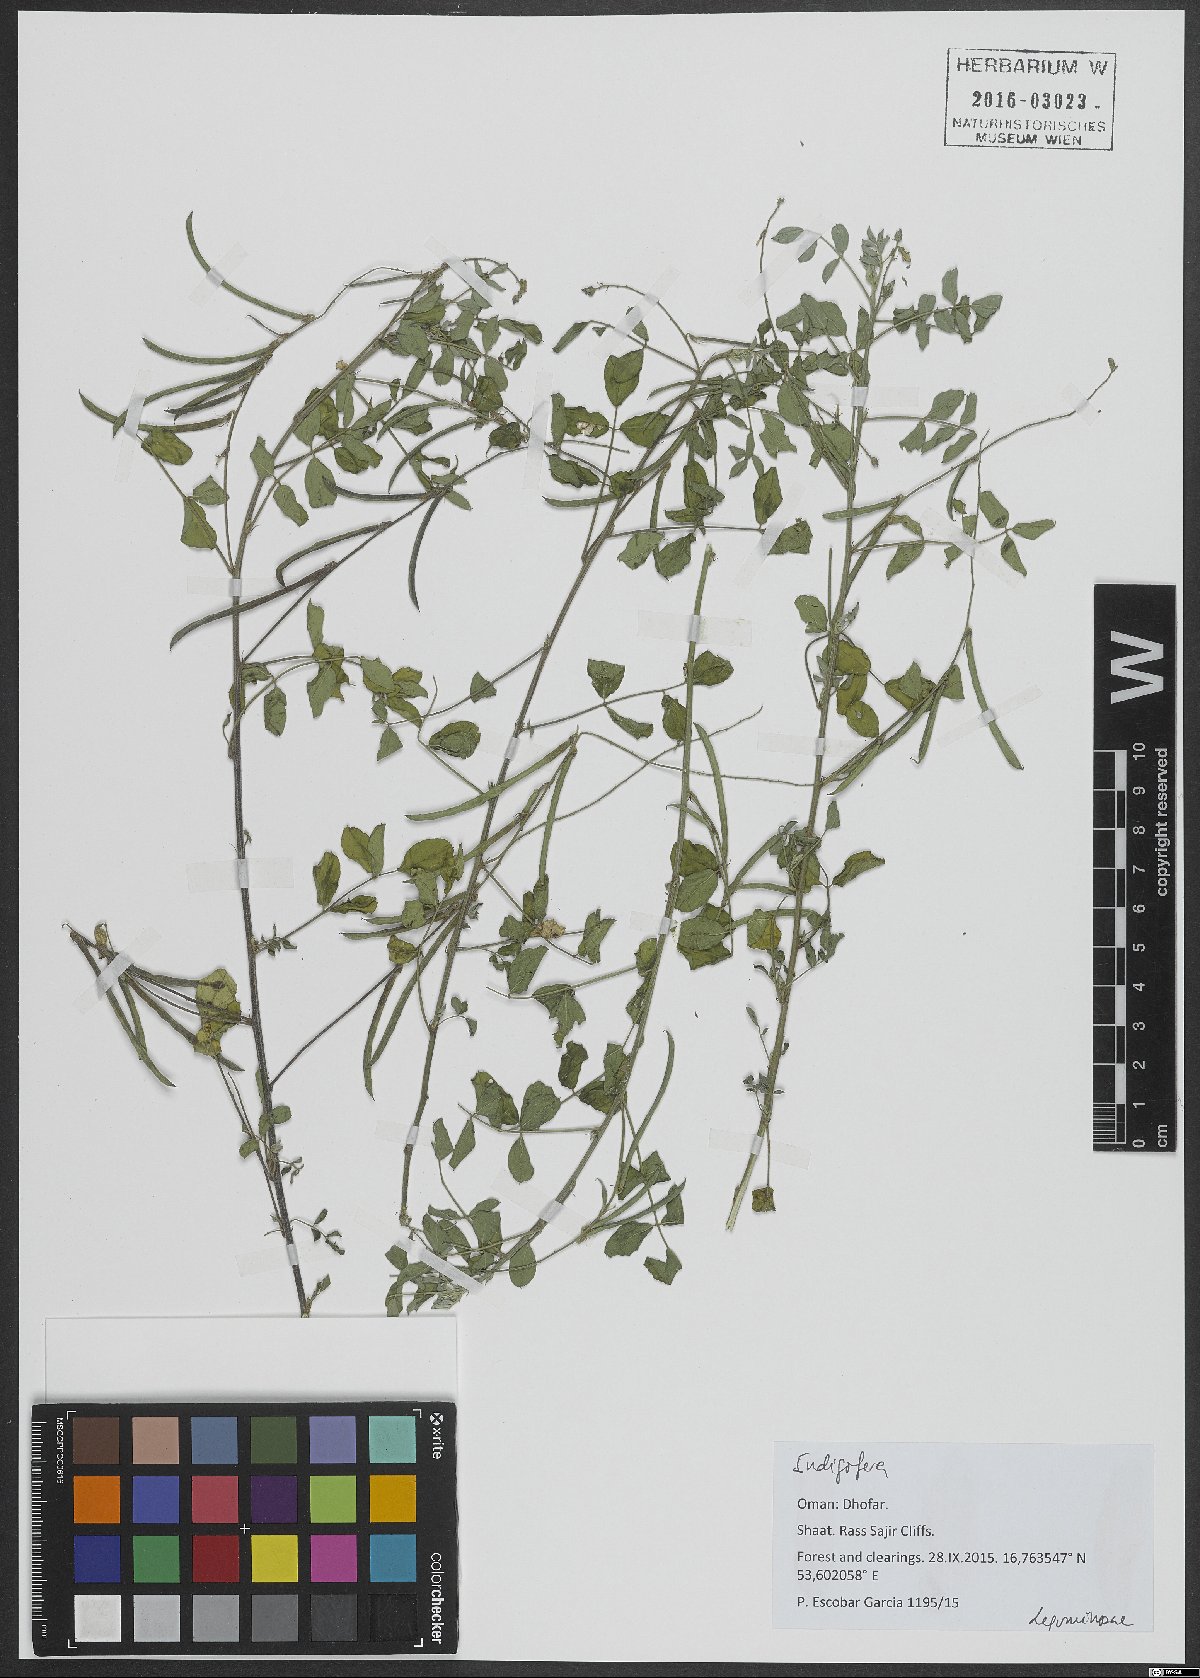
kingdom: Plantae
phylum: Tracheophyta
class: Magnoliopsida
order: Fabales
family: Fabaceae
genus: Indigofera
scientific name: Indigofera
